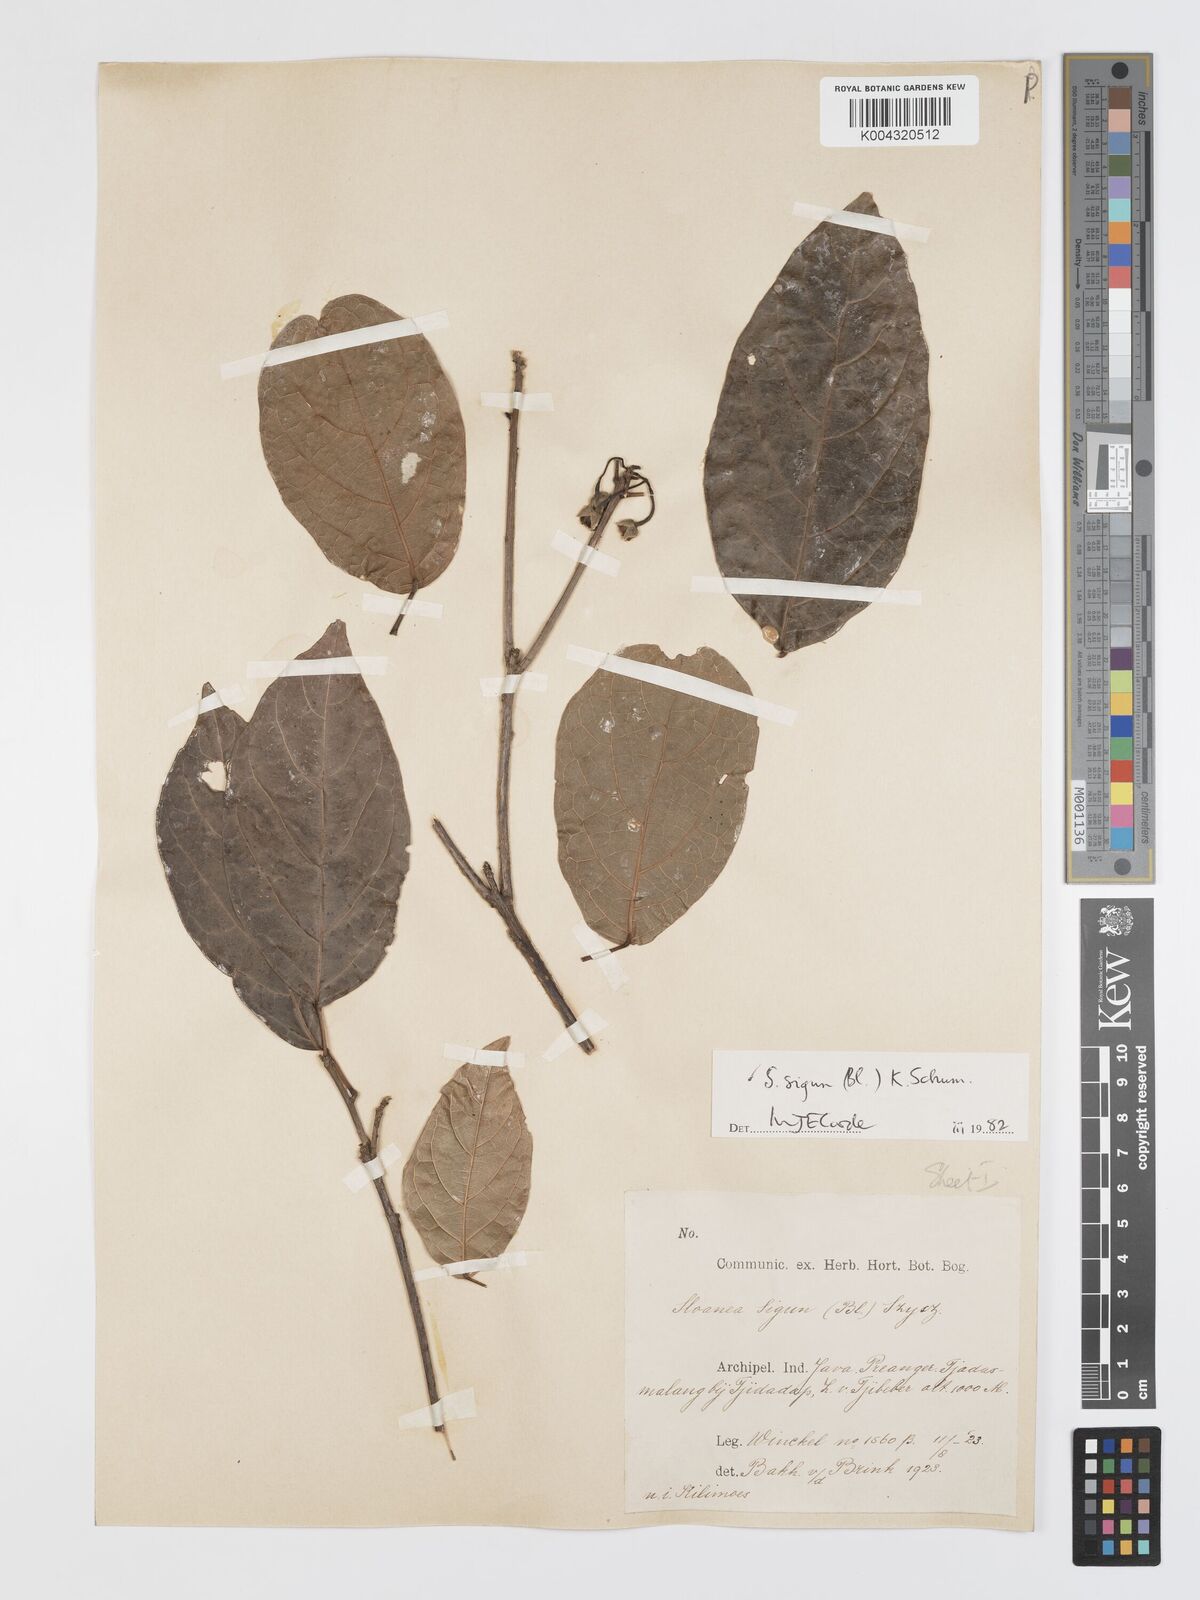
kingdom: Plantae
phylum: Tracheophyta
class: Magnoliopsida
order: Oxalidales
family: Elaeocarpaceae
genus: Sloanea
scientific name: Sloanea sigun
